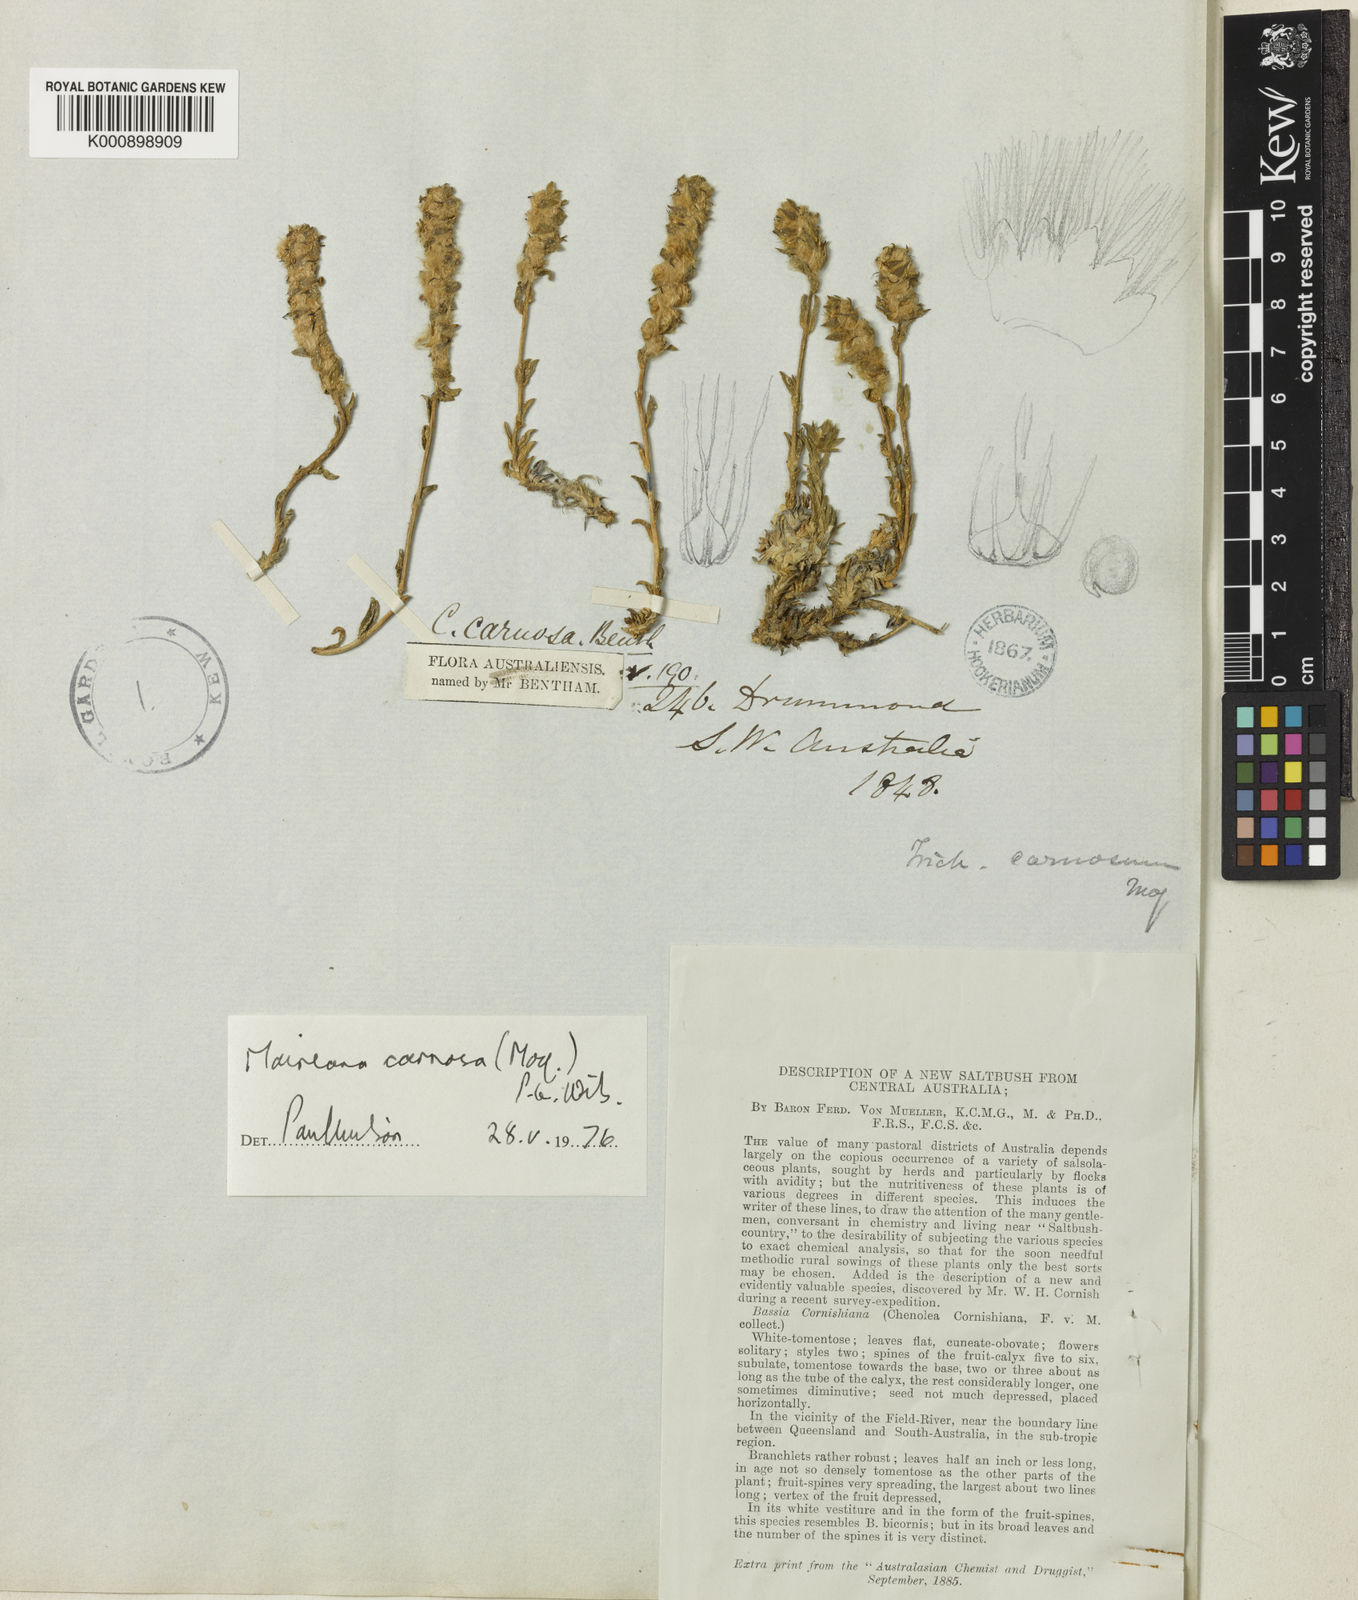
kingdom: Plantae
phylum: Tracheophyta
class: Magnoliopsida
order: Caryophyllales
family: Amaranthaceae
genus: Maireana
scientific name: Maireana carnosa
